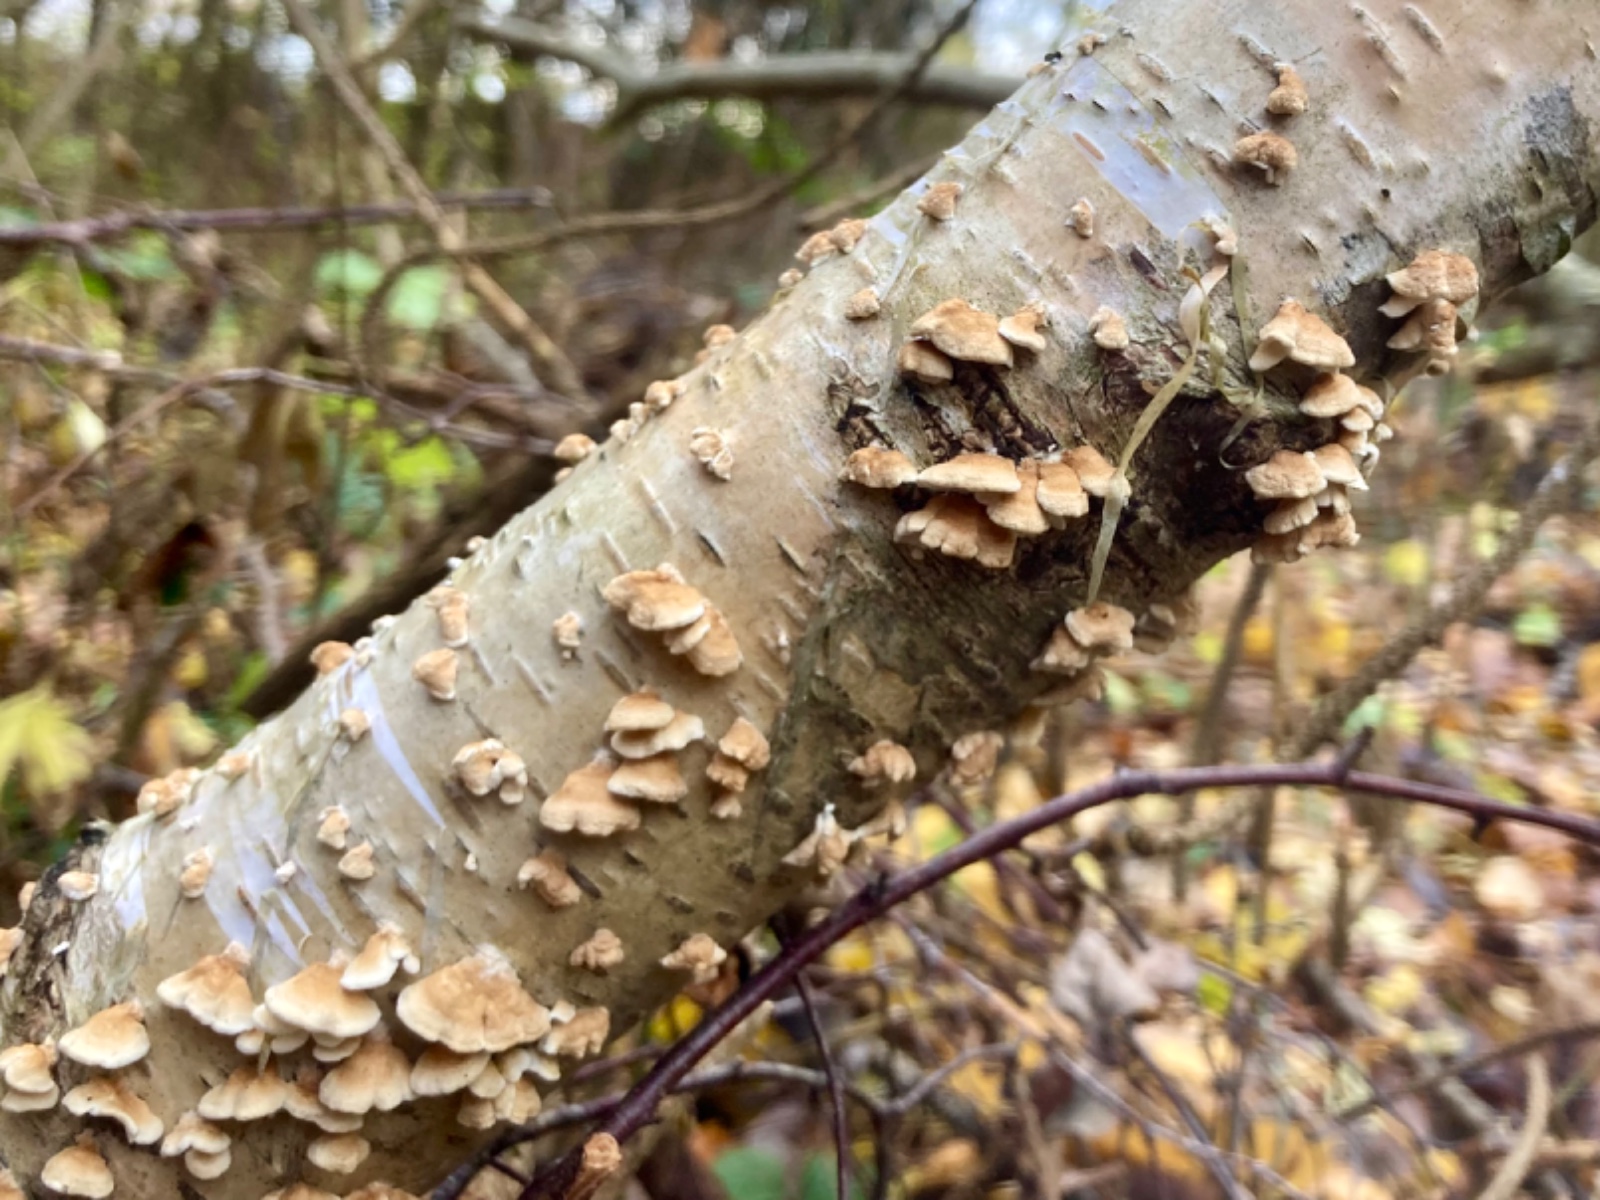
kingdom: Fungi
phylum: Basidiomycota
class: Agaricomycetes
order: Amylocorticiales
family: Amylocorticiaceae
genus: Plicaturopsis
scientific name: Plicaturopsis crispa
